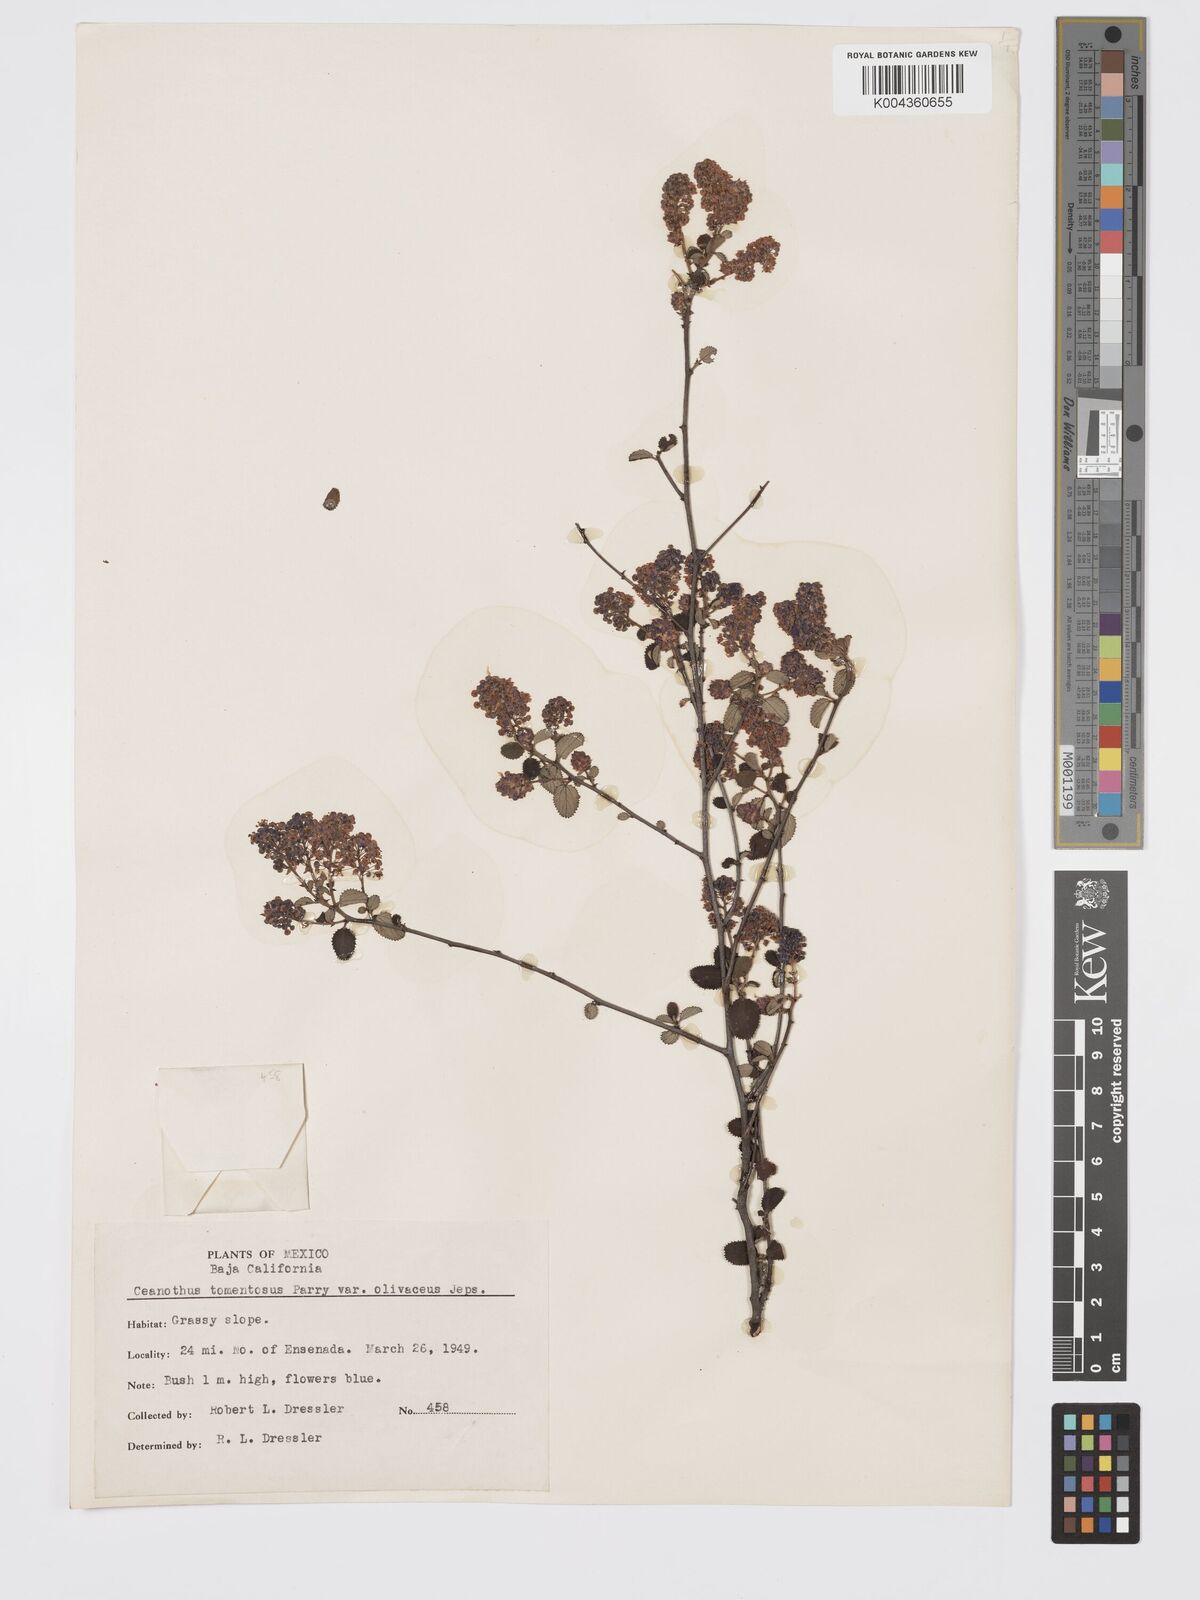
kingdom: Plantae
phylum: Tracheophyta
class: Magnoliopsida
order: Rosales
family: Rhamnaceae
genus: Ceanothus
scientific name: Ceanothus tomentosus
